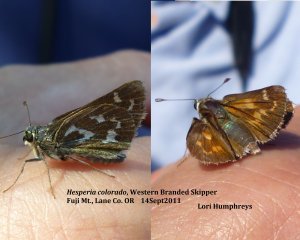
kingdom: Animalia
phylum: Arthropoda
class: Insecta
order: Lepidoptera
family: Hesperiidae
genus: Hesperia
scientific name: Hesperia comma
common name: Western Branded Skipper
